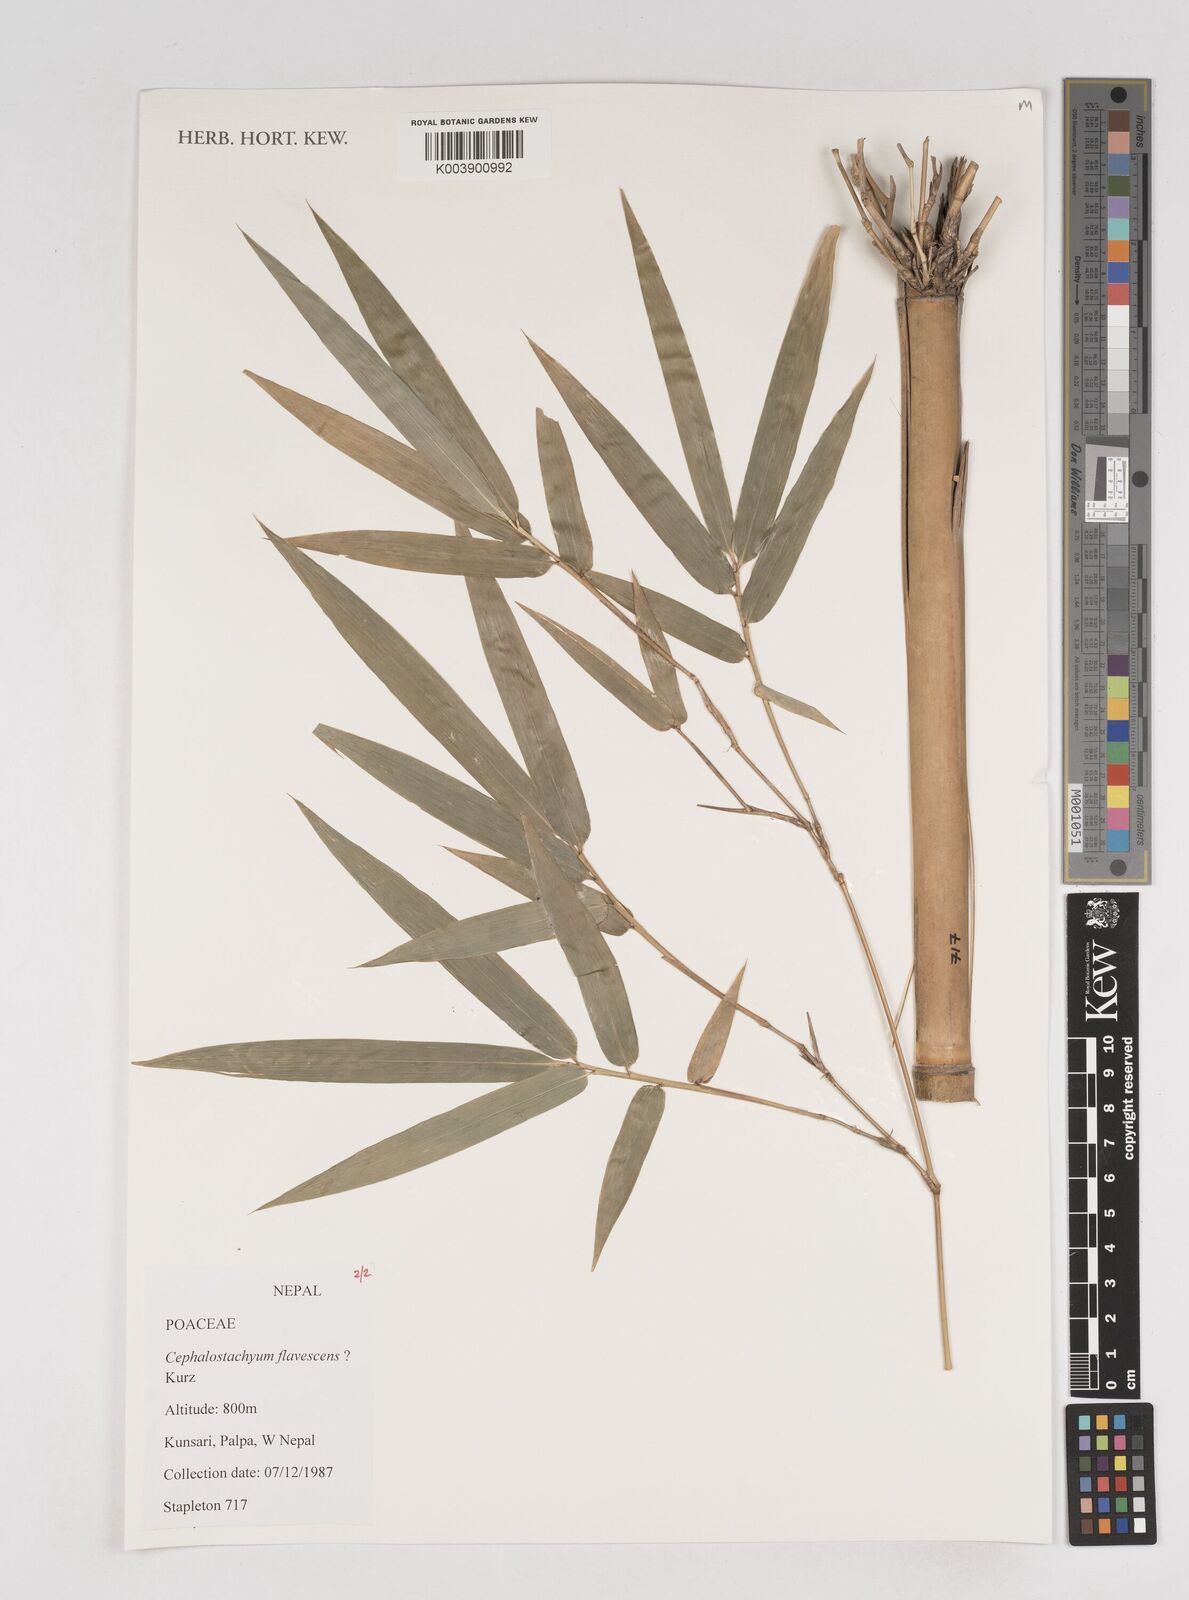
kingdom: Plantae
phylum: Tracheophyta
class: Liliopsida
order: Poales
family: Poaceae
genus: Cephalostachyum
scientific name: Cephalostachyum flavescens
